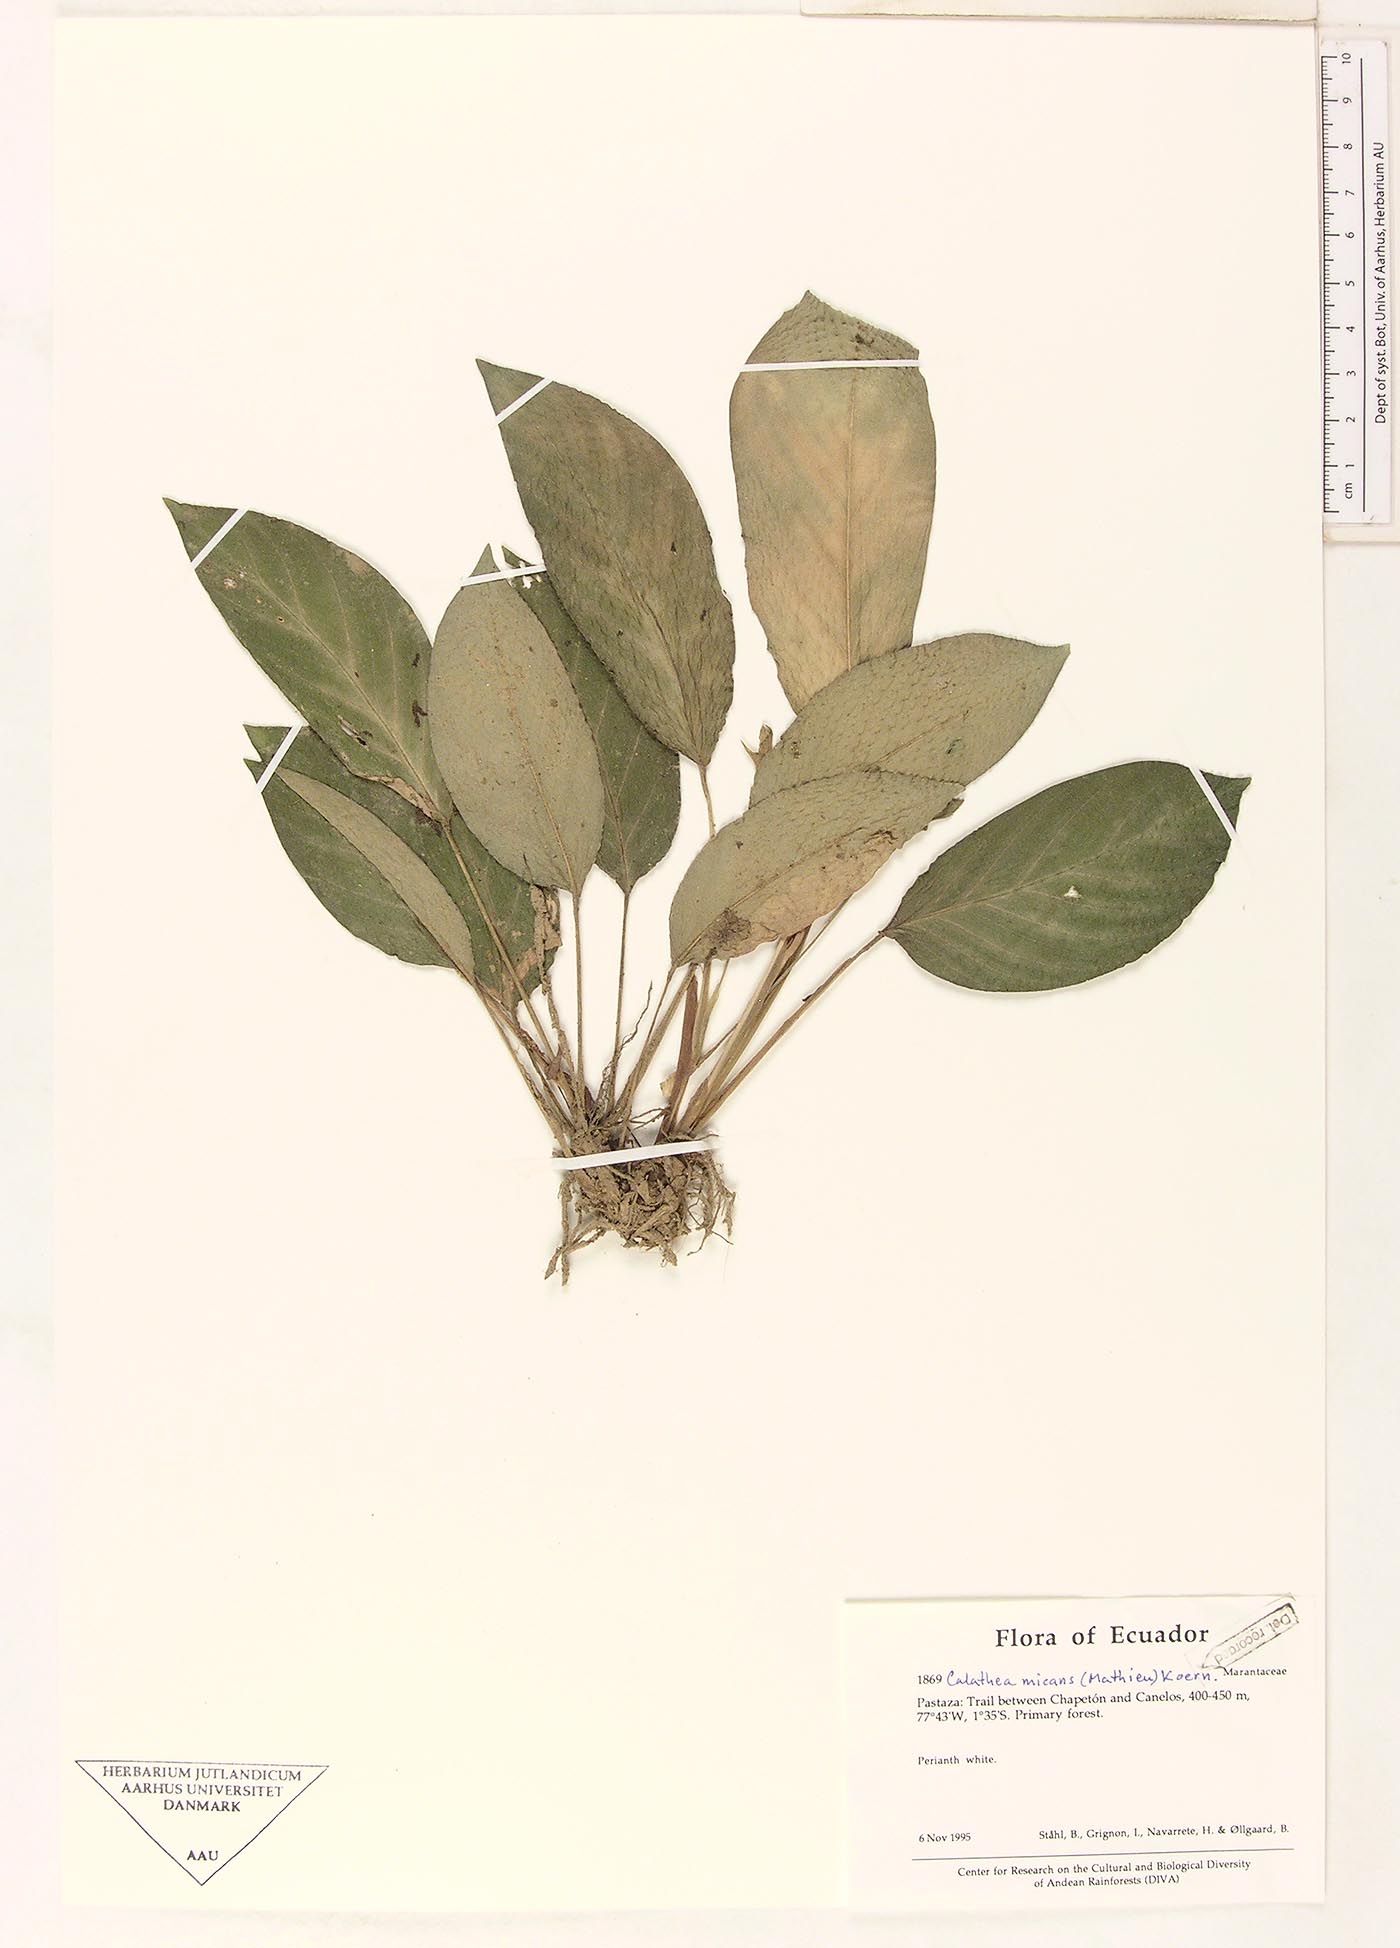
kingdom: Plantae
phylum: Tracheophyta
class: Liliopsida
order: Zingiberales
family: Marantaceae
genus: Goeppertia
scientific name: Goeppertia micans
